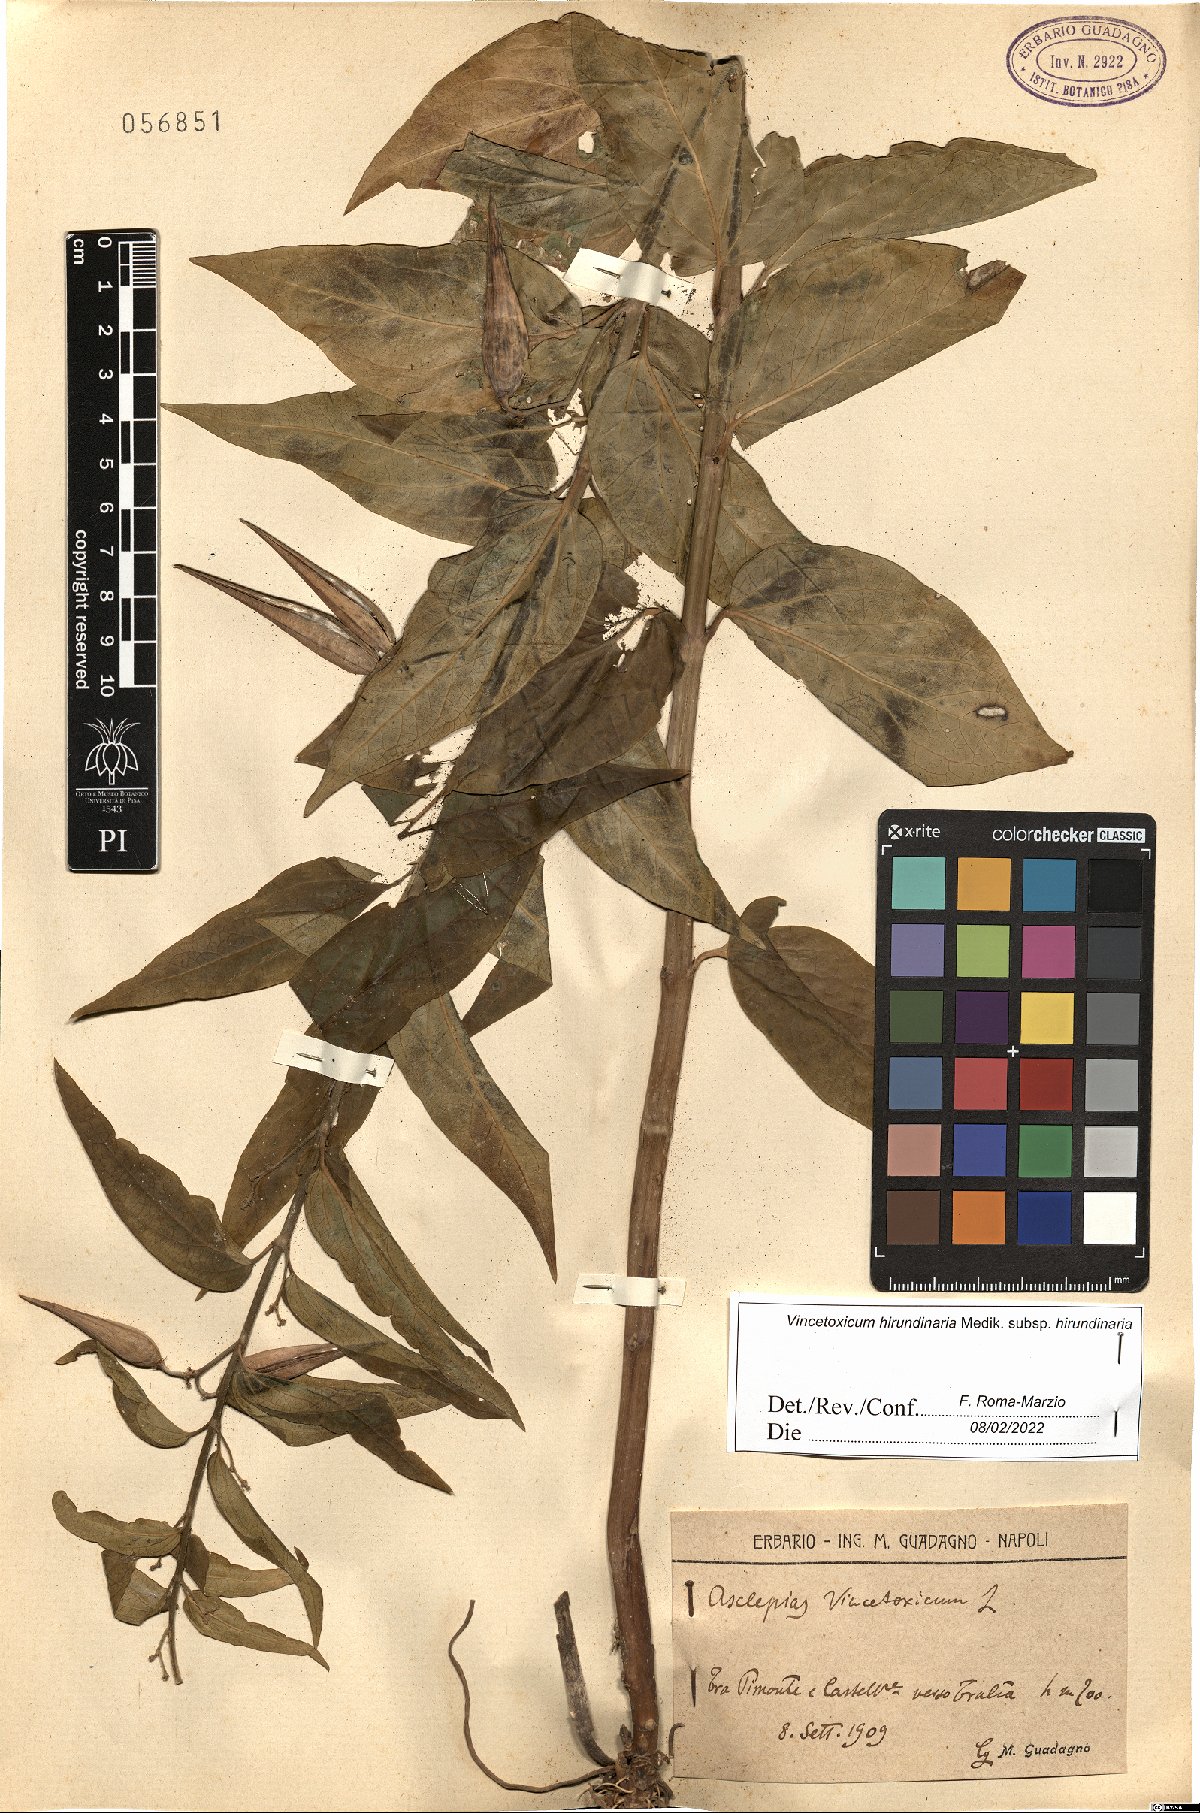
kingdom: Plantae
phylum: Tracheophyta
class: Magnoliopsida
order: Gentianales
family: Apocynaceae
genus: Vincetoxicum
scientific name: Vincetoxicum hirundinaria
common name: White swallowwort
